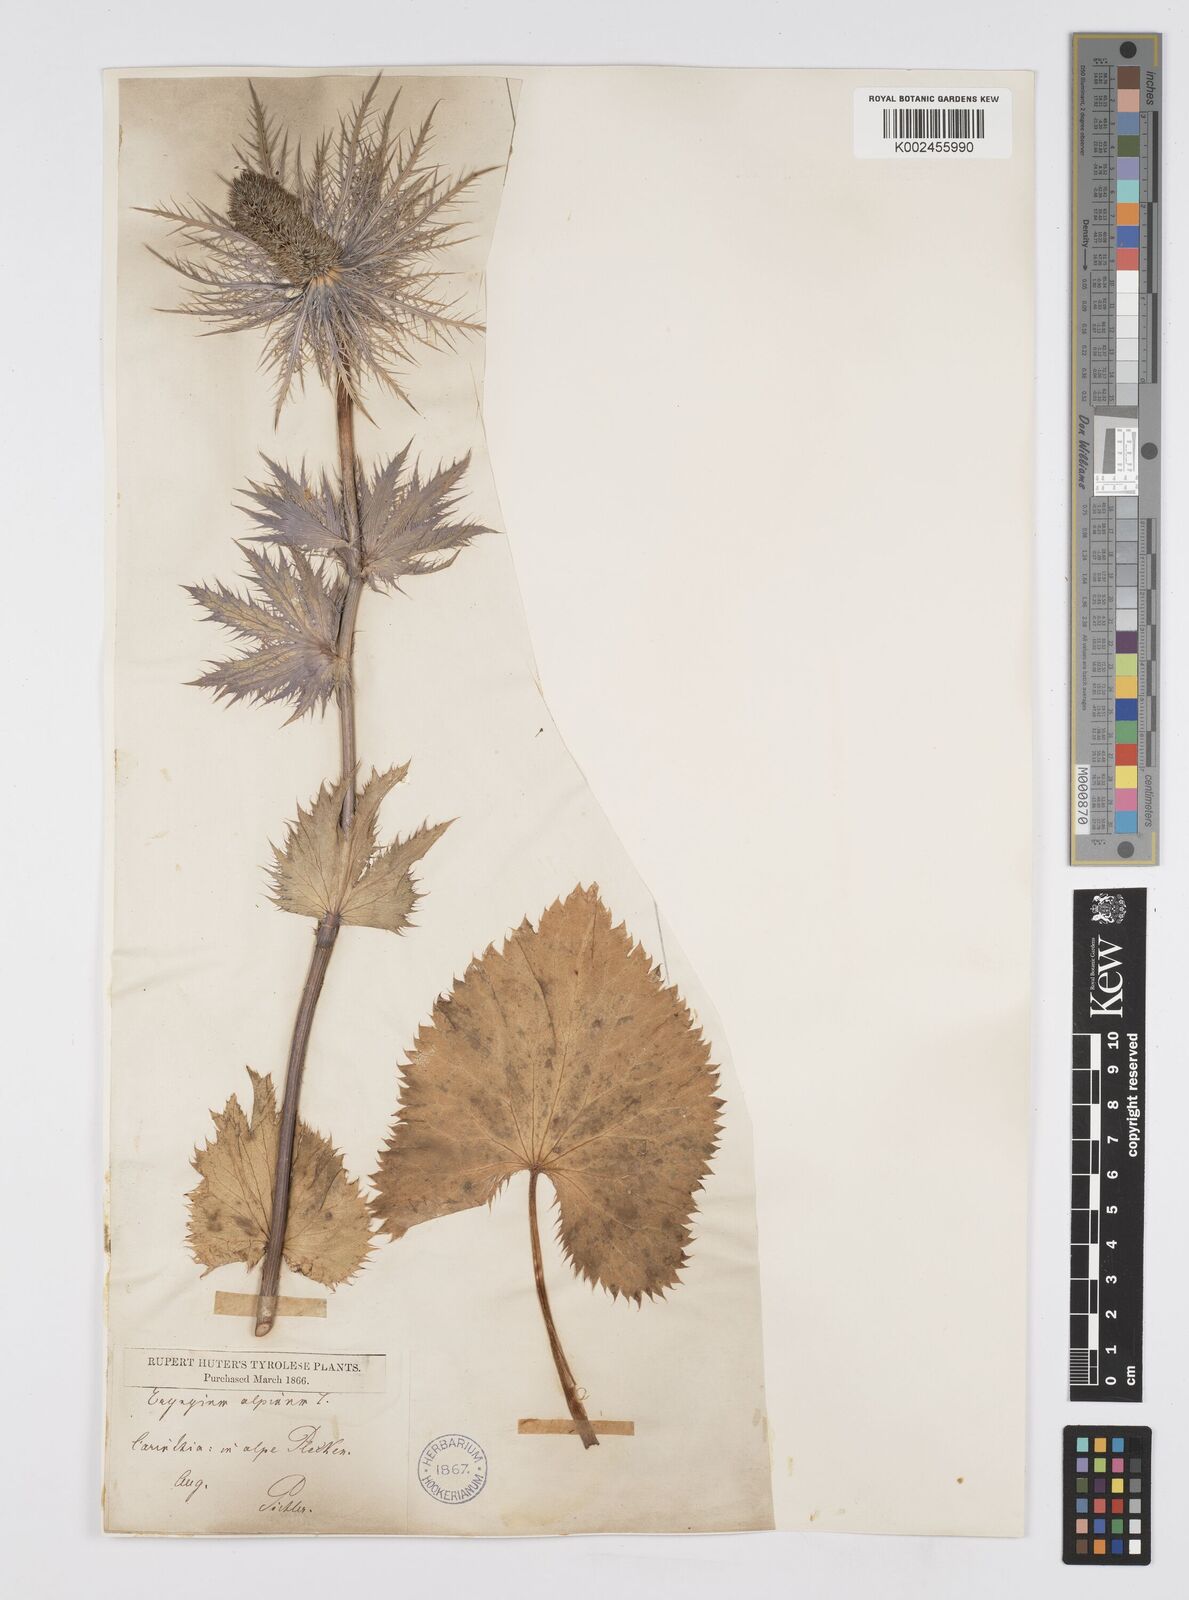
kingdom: Plantae
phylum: Tracheophyta
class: Magnoliopsida
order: Apiales
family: Apiaceae
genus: Eryngium
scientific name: Eryngium alpinum
